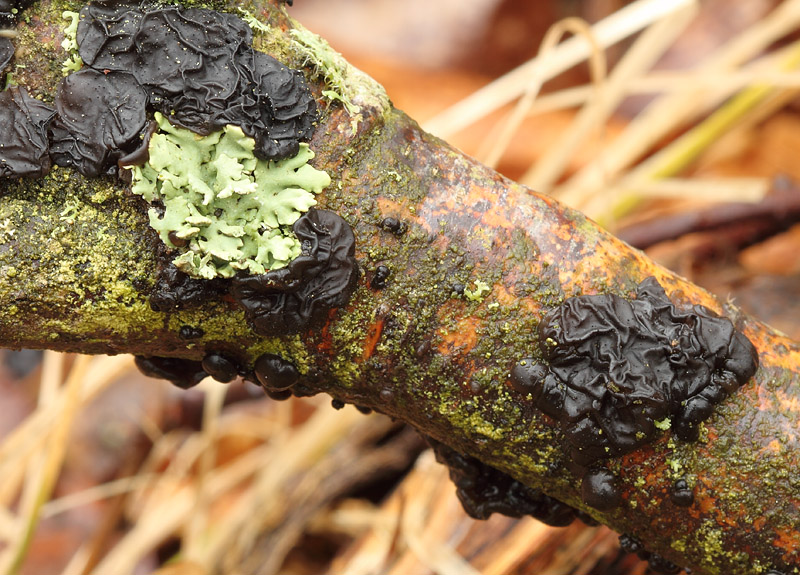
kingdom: Fungi
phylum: Basidiomycota
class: Agaricomycetes
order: Auriculariales
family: Auriculariaceae
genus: Exidia
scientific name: Exidia nigricans
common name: almindelig bævretop
